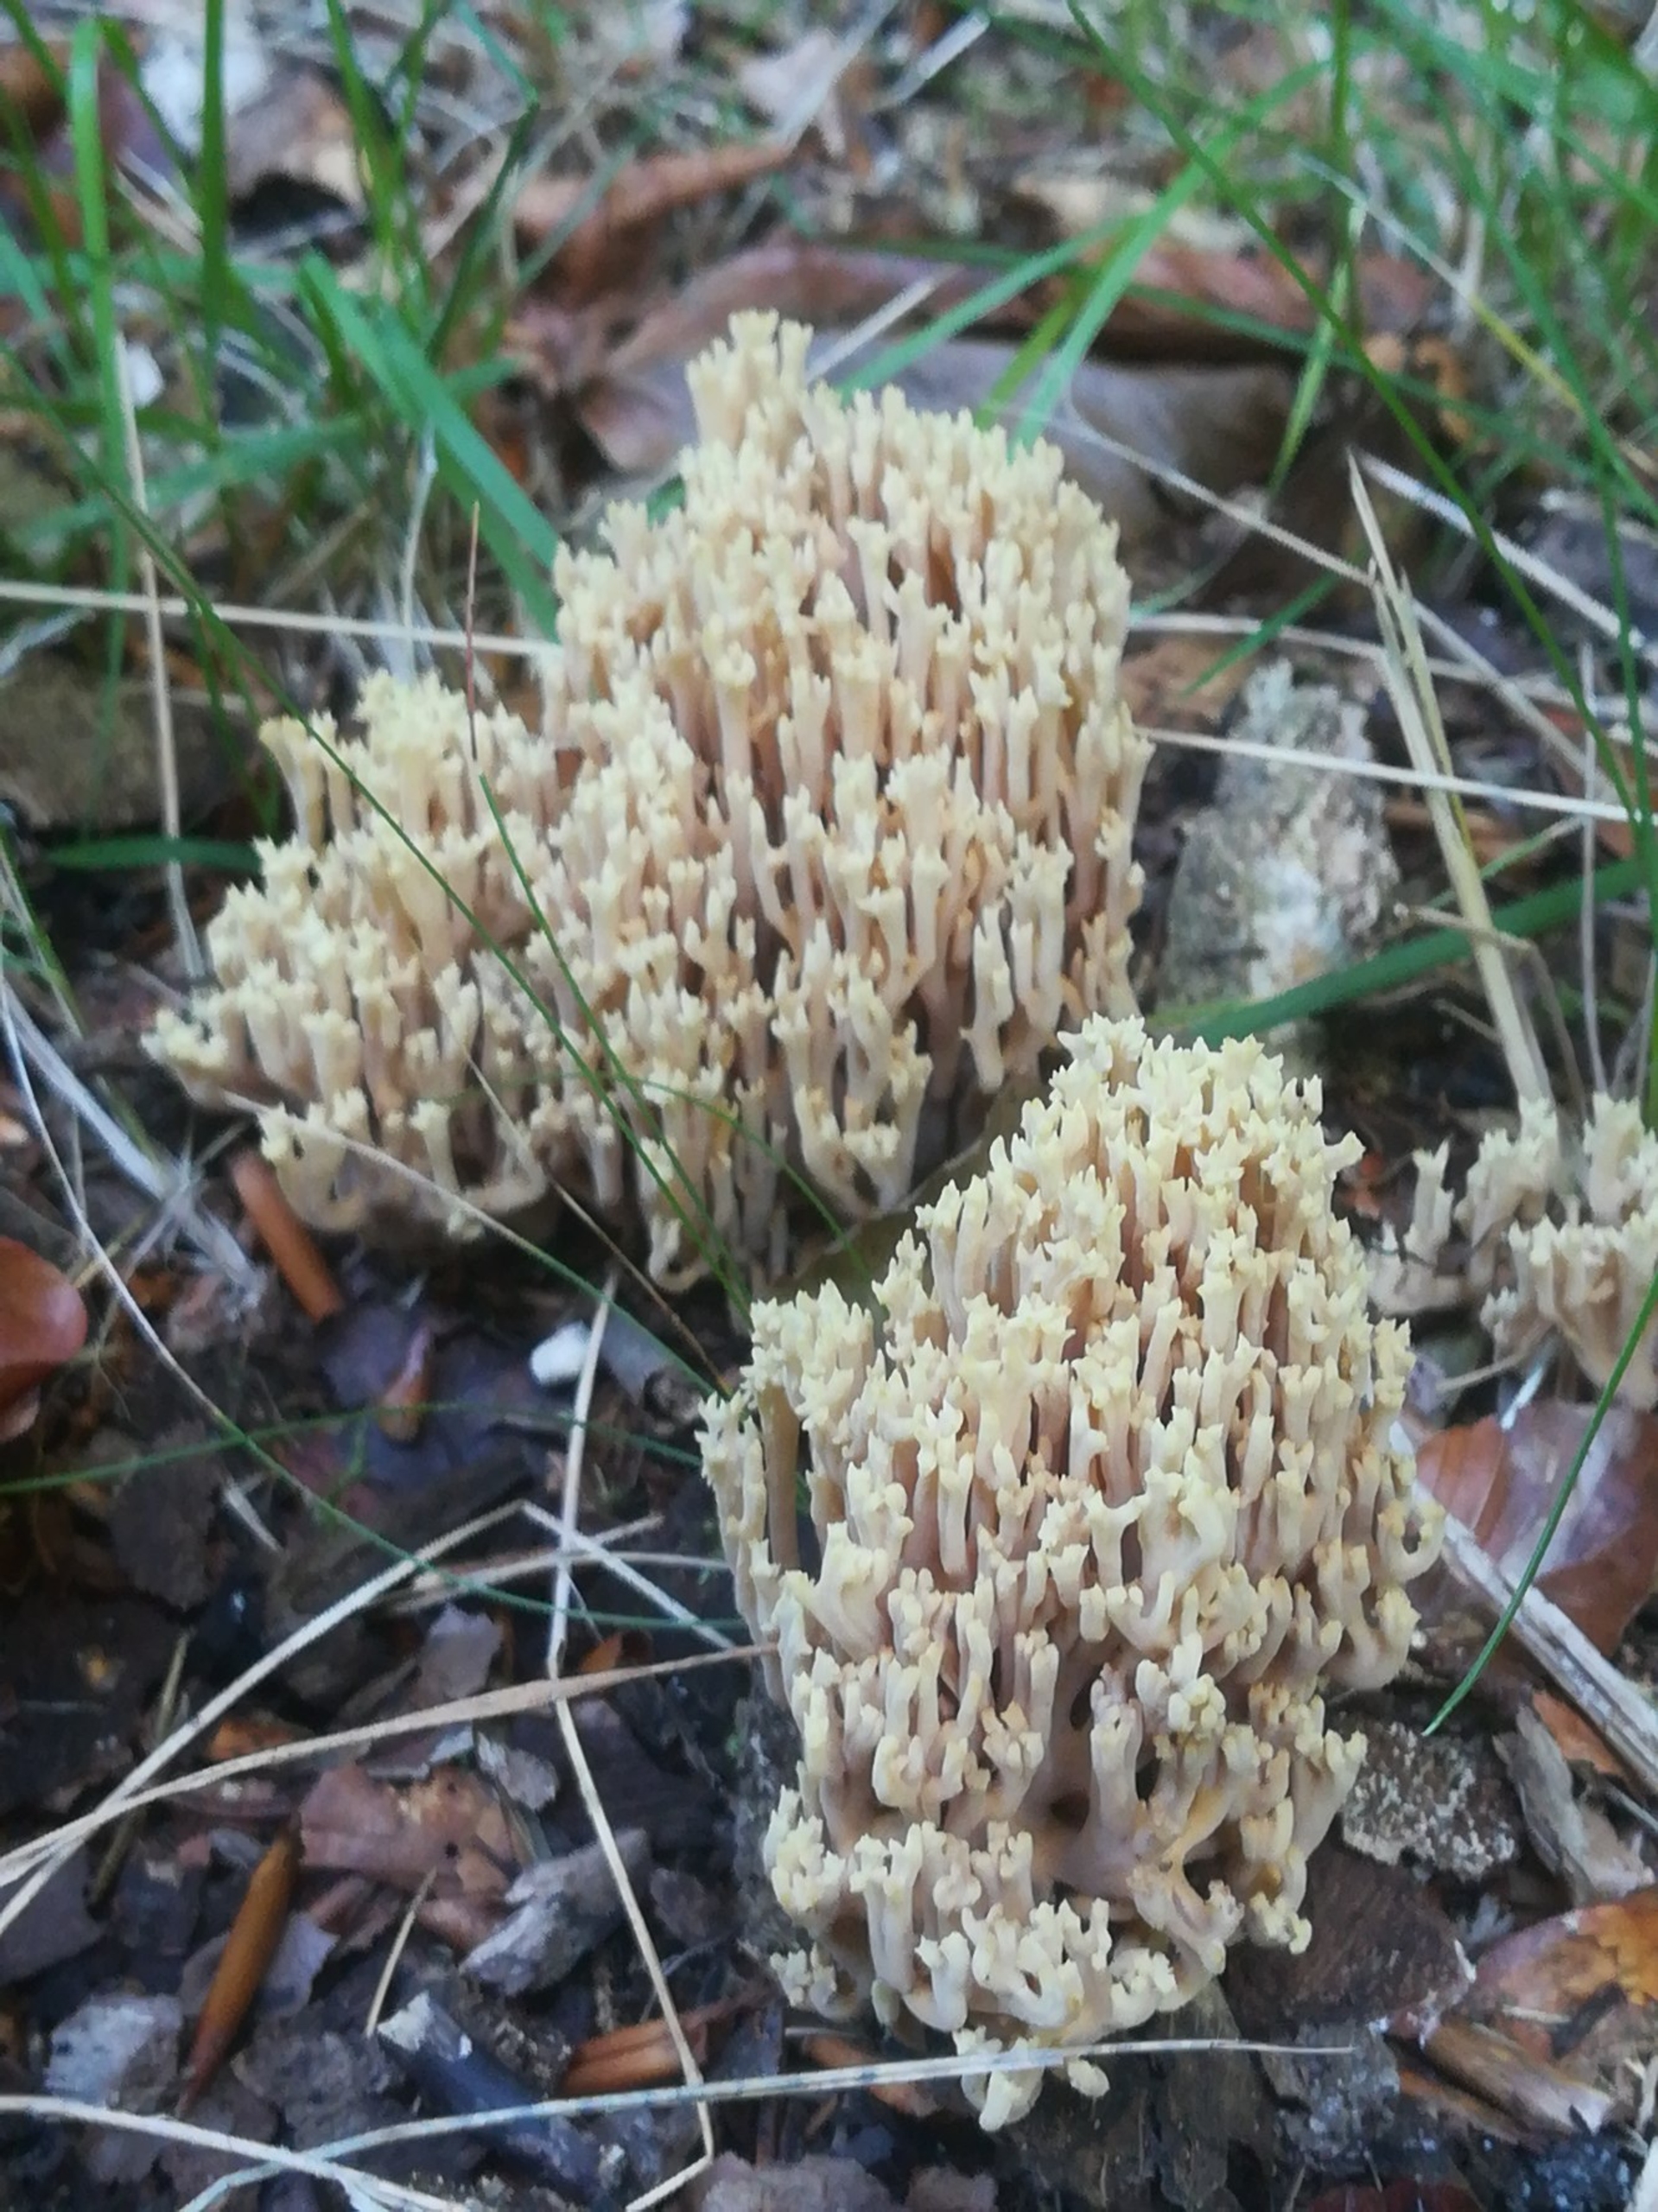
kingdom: Fungi
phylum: Basidiomycota
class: Agaricomycetes
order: Gomphales
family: Gomphaceae
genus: Ramaria
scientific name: Ramaria
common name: Koralsvamp
